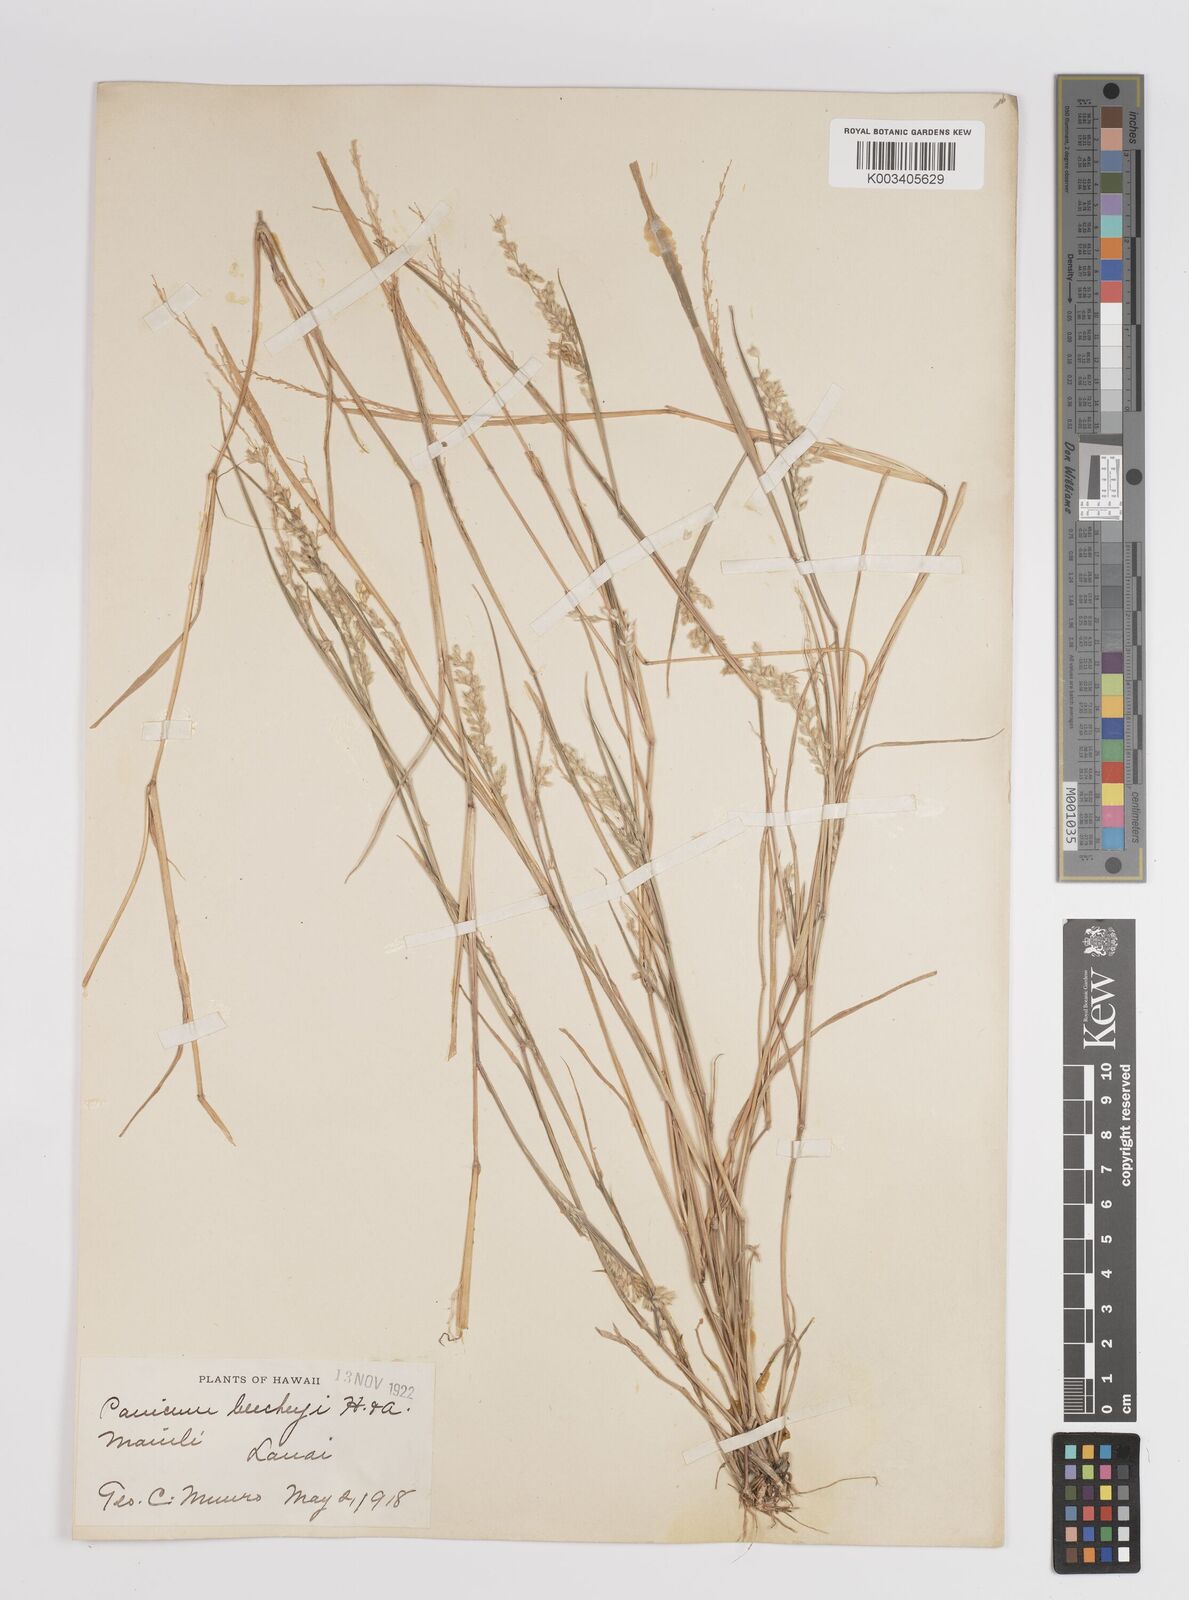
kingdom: Plantae
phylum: Tracheophyta
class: Liliopsida
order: Poales
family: Poaceae
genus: Panicum
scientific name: Panicum beecheyi
